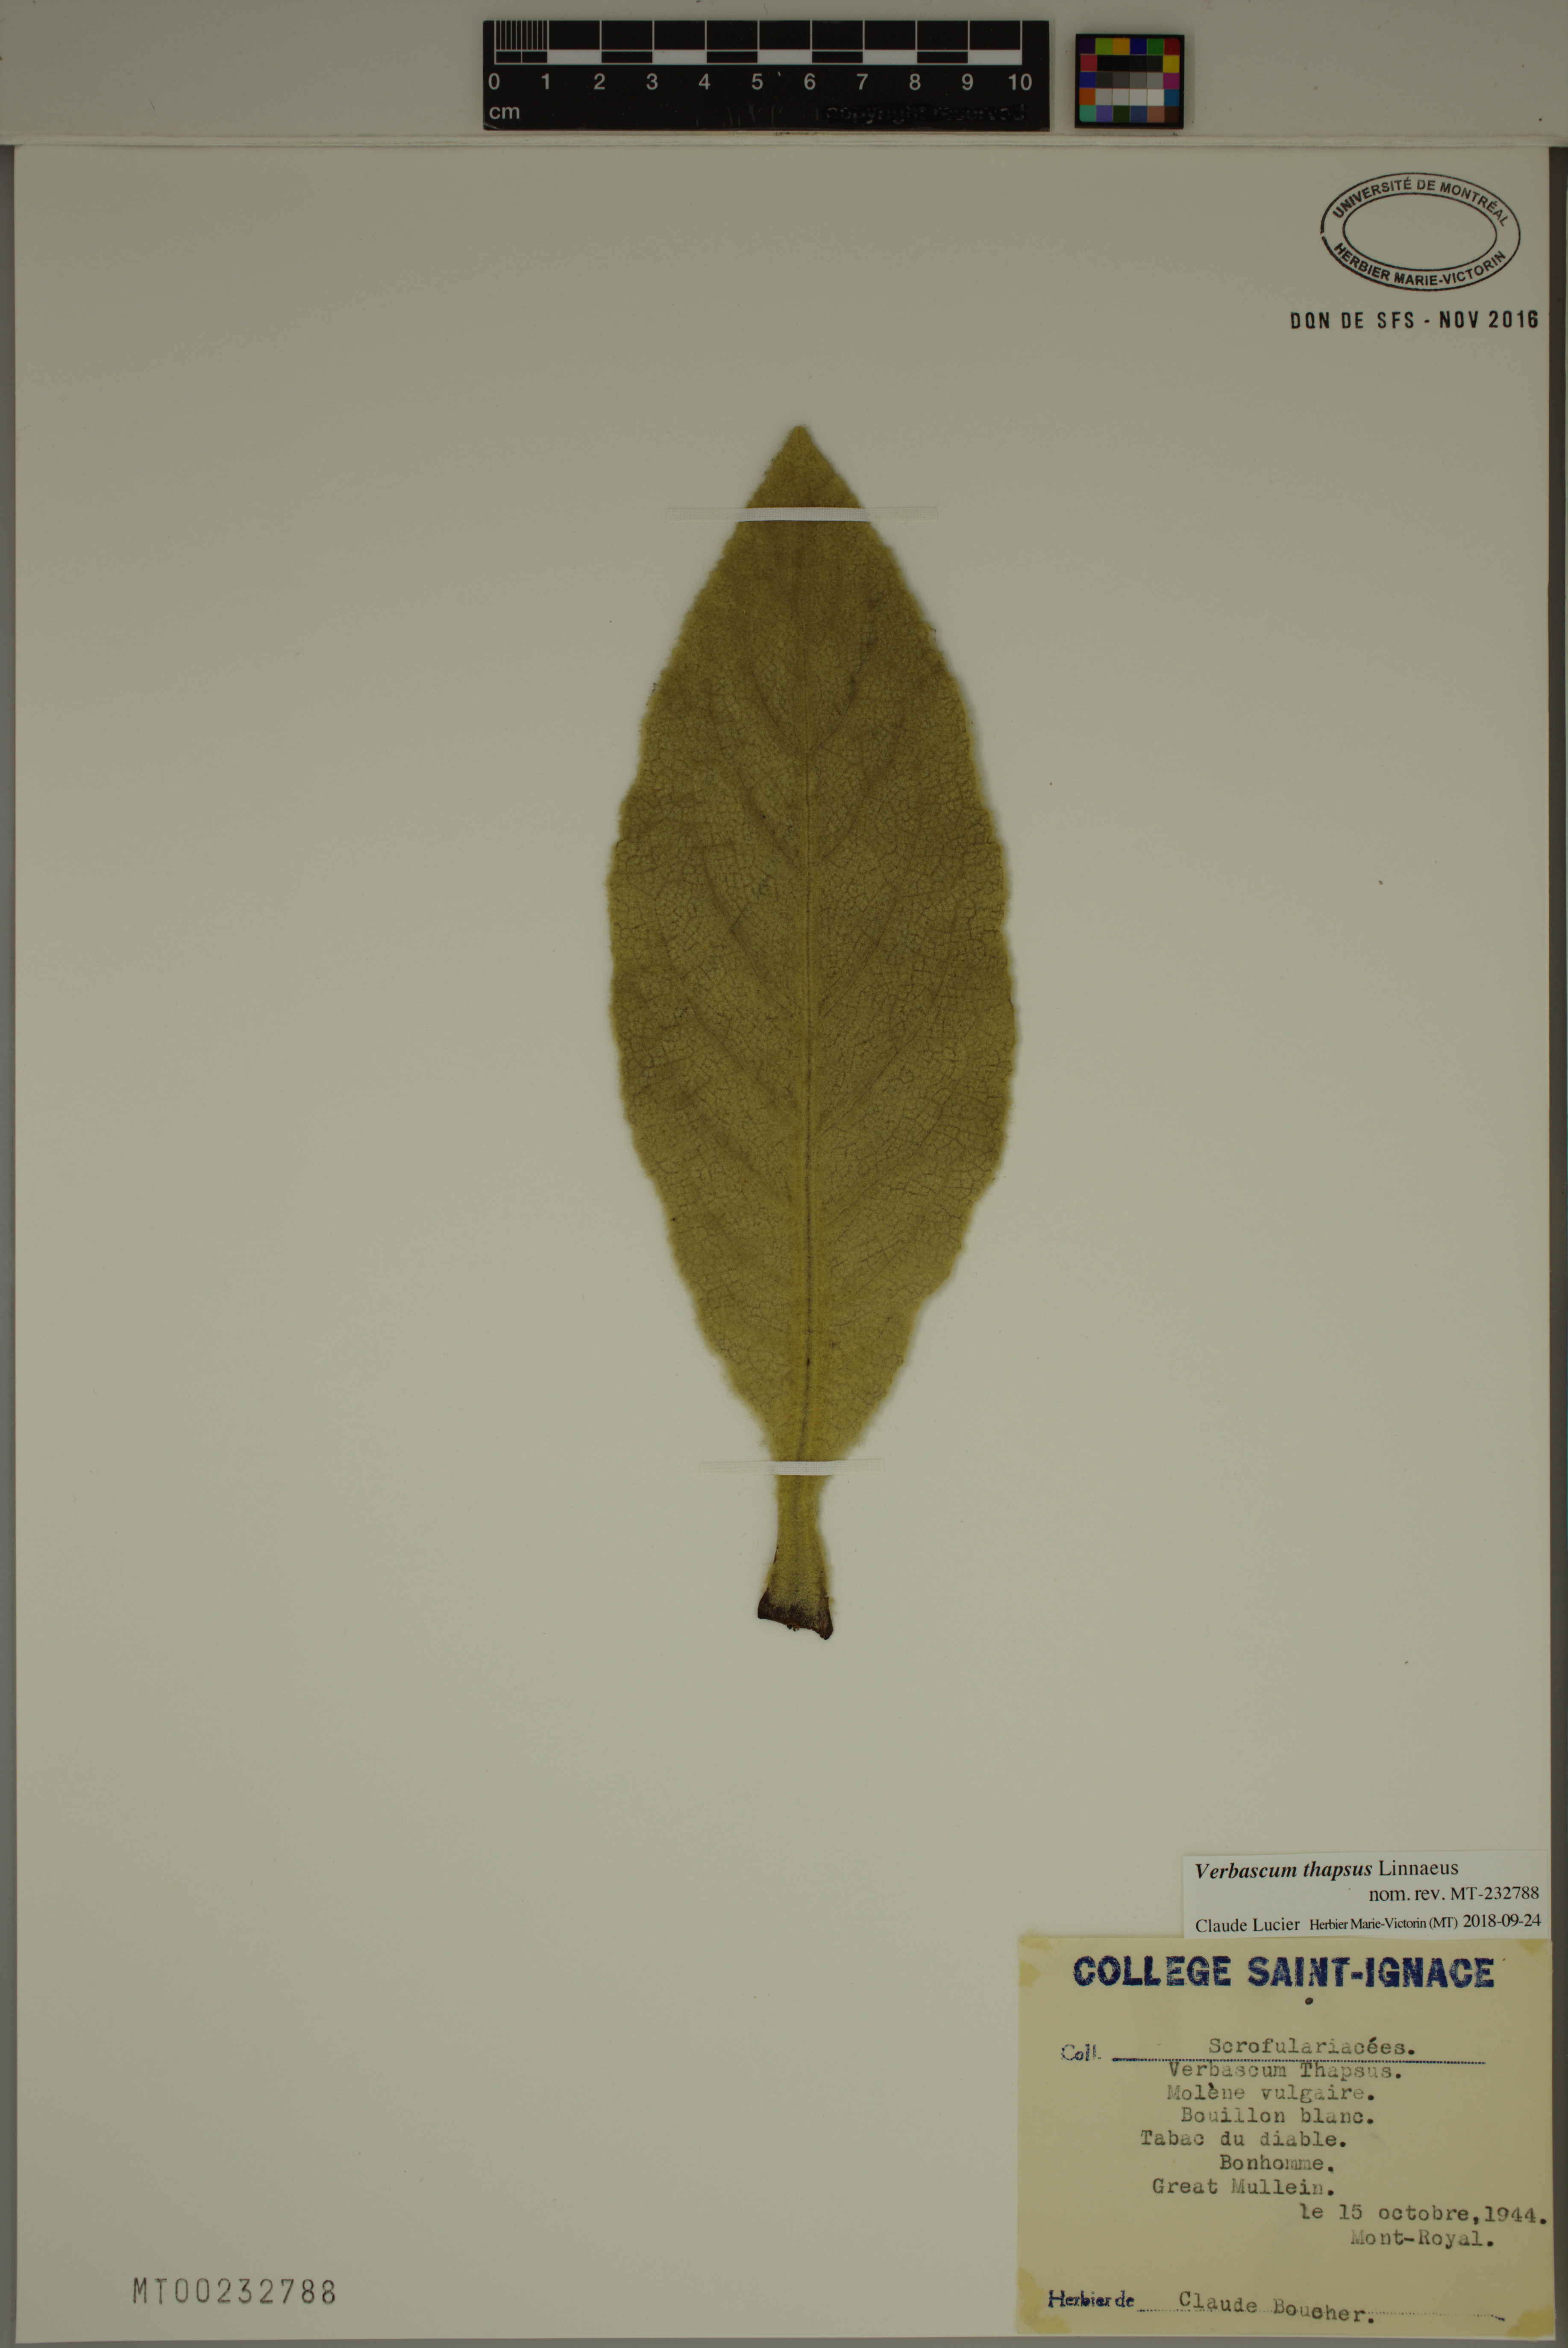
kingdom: Plantae
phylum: Tracheophyta
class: Magnoliopsida
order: Lamiales
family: Scrophulariaceae
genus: Verbascum
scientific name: Verbascum thapsus
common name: Common mullein
